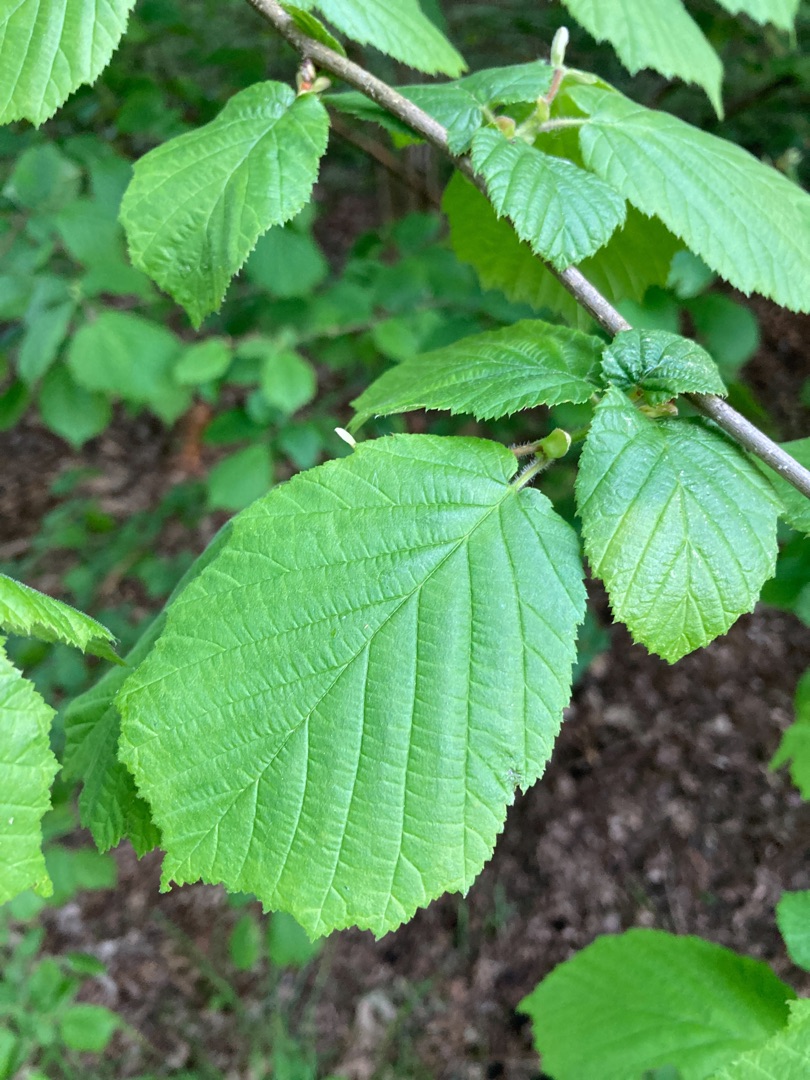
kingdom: Plantae
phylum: Tracheophyta
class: Magnoliopsida
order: Fagales
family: Betulaceae
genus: Corylus
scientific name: Corylus avellana
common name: Hassel
